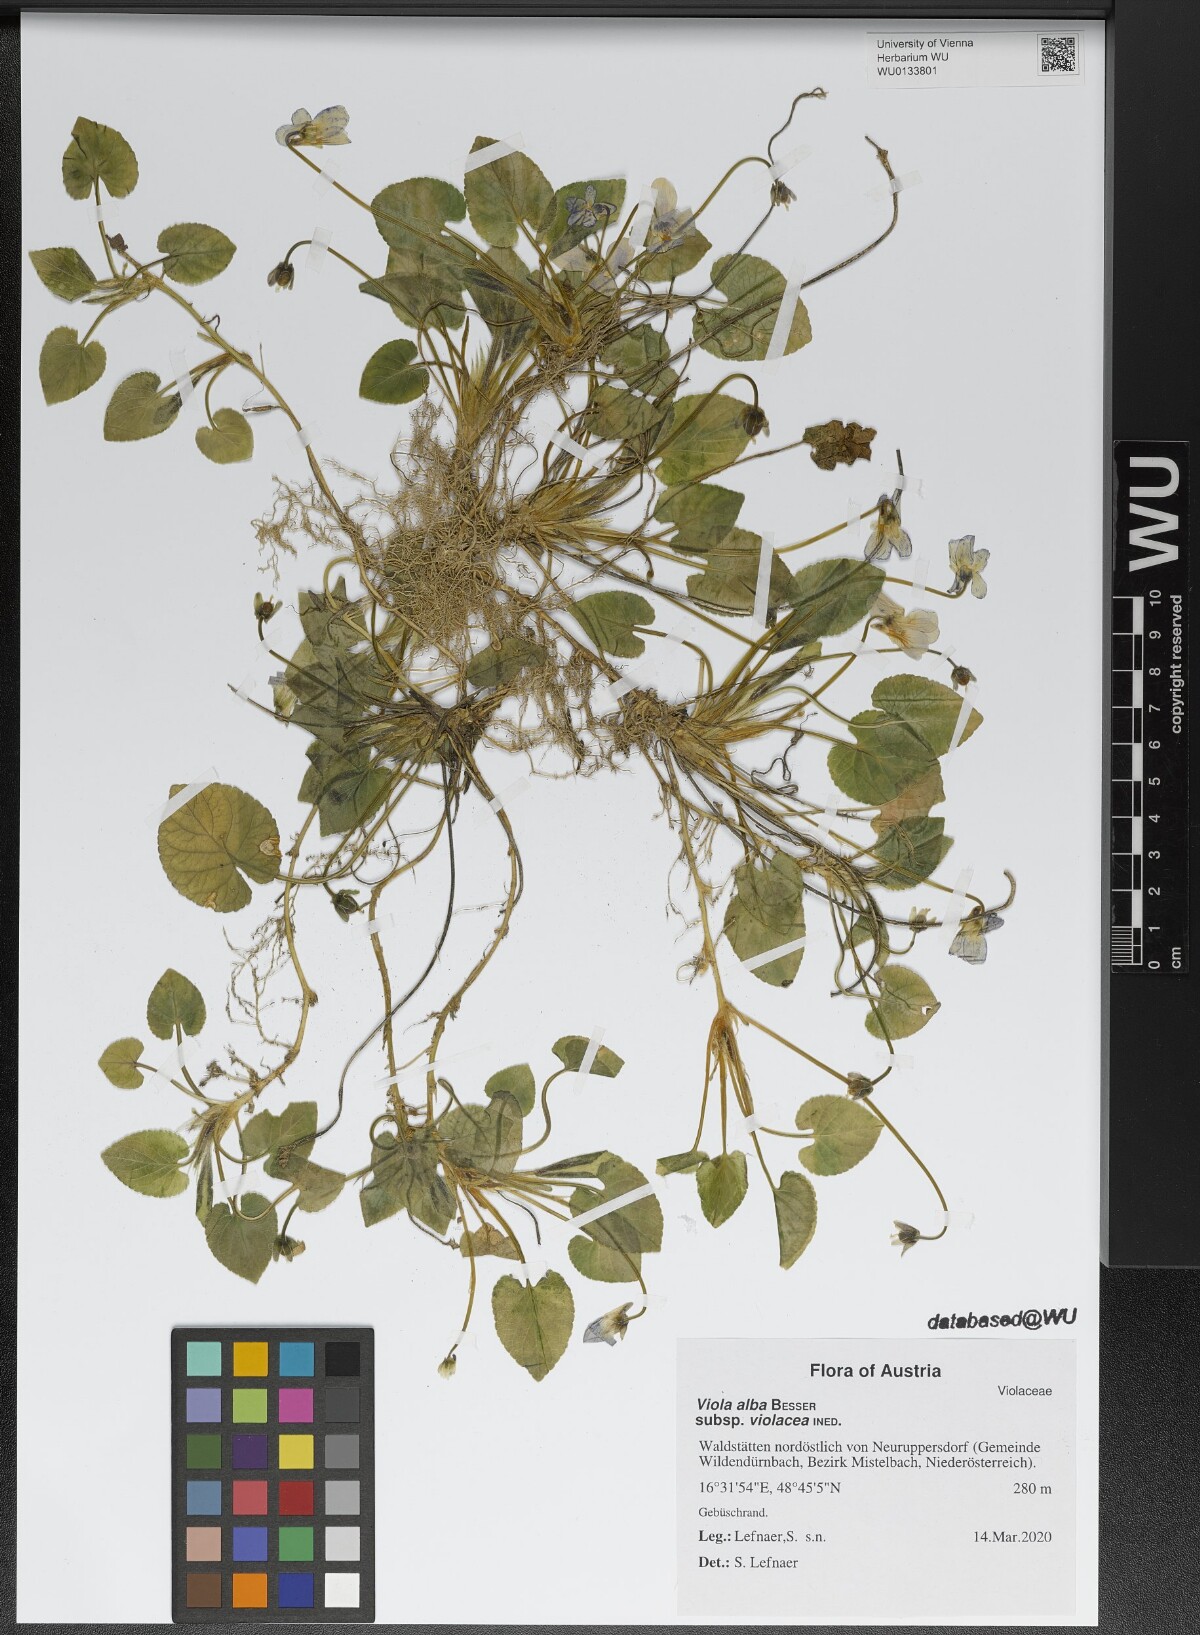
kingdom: Plantae
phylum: Tracheophyta
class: Magnoliopsida
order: Malpighiales
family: Violaceae
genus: Viola
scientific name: Viola alba
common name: White violet
